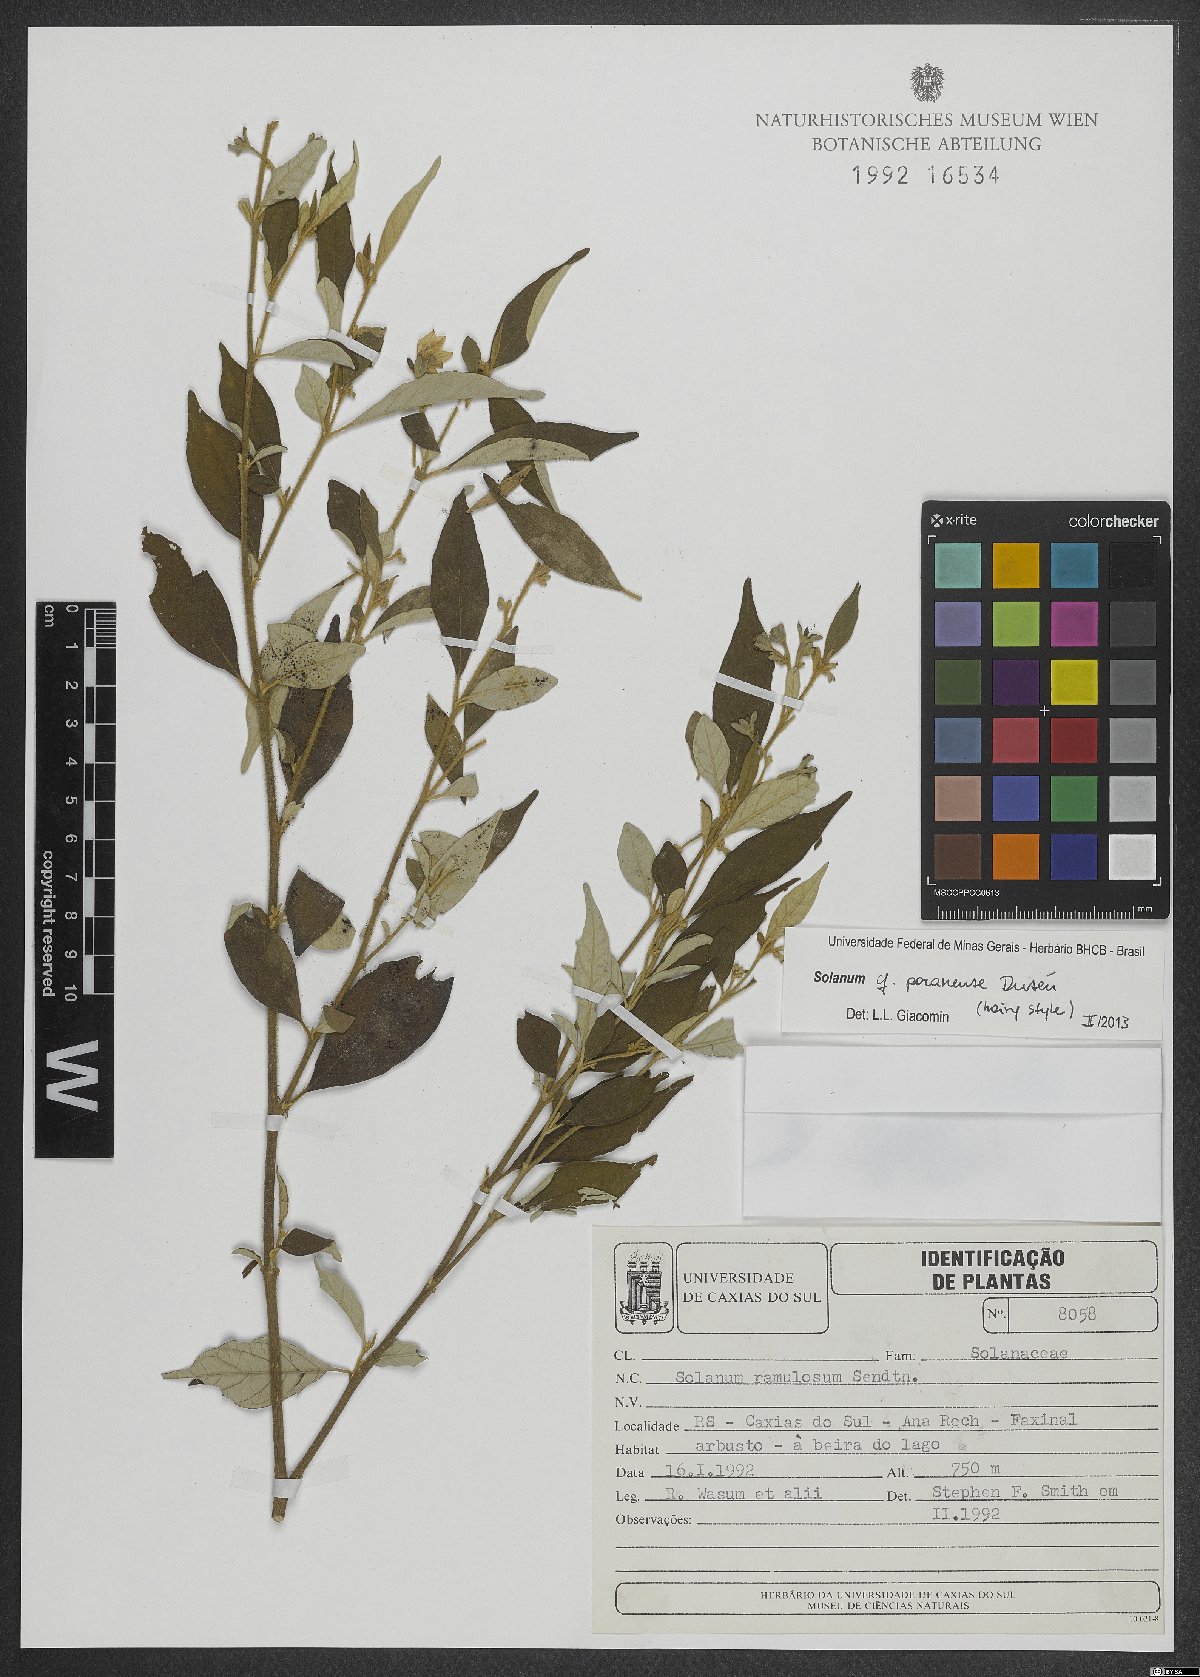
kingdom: Plantae
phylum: Tracheophyta
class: Magnoliopsida
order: Solanales
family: Solanaceae
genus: Solanum
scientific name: Solanum paranense
